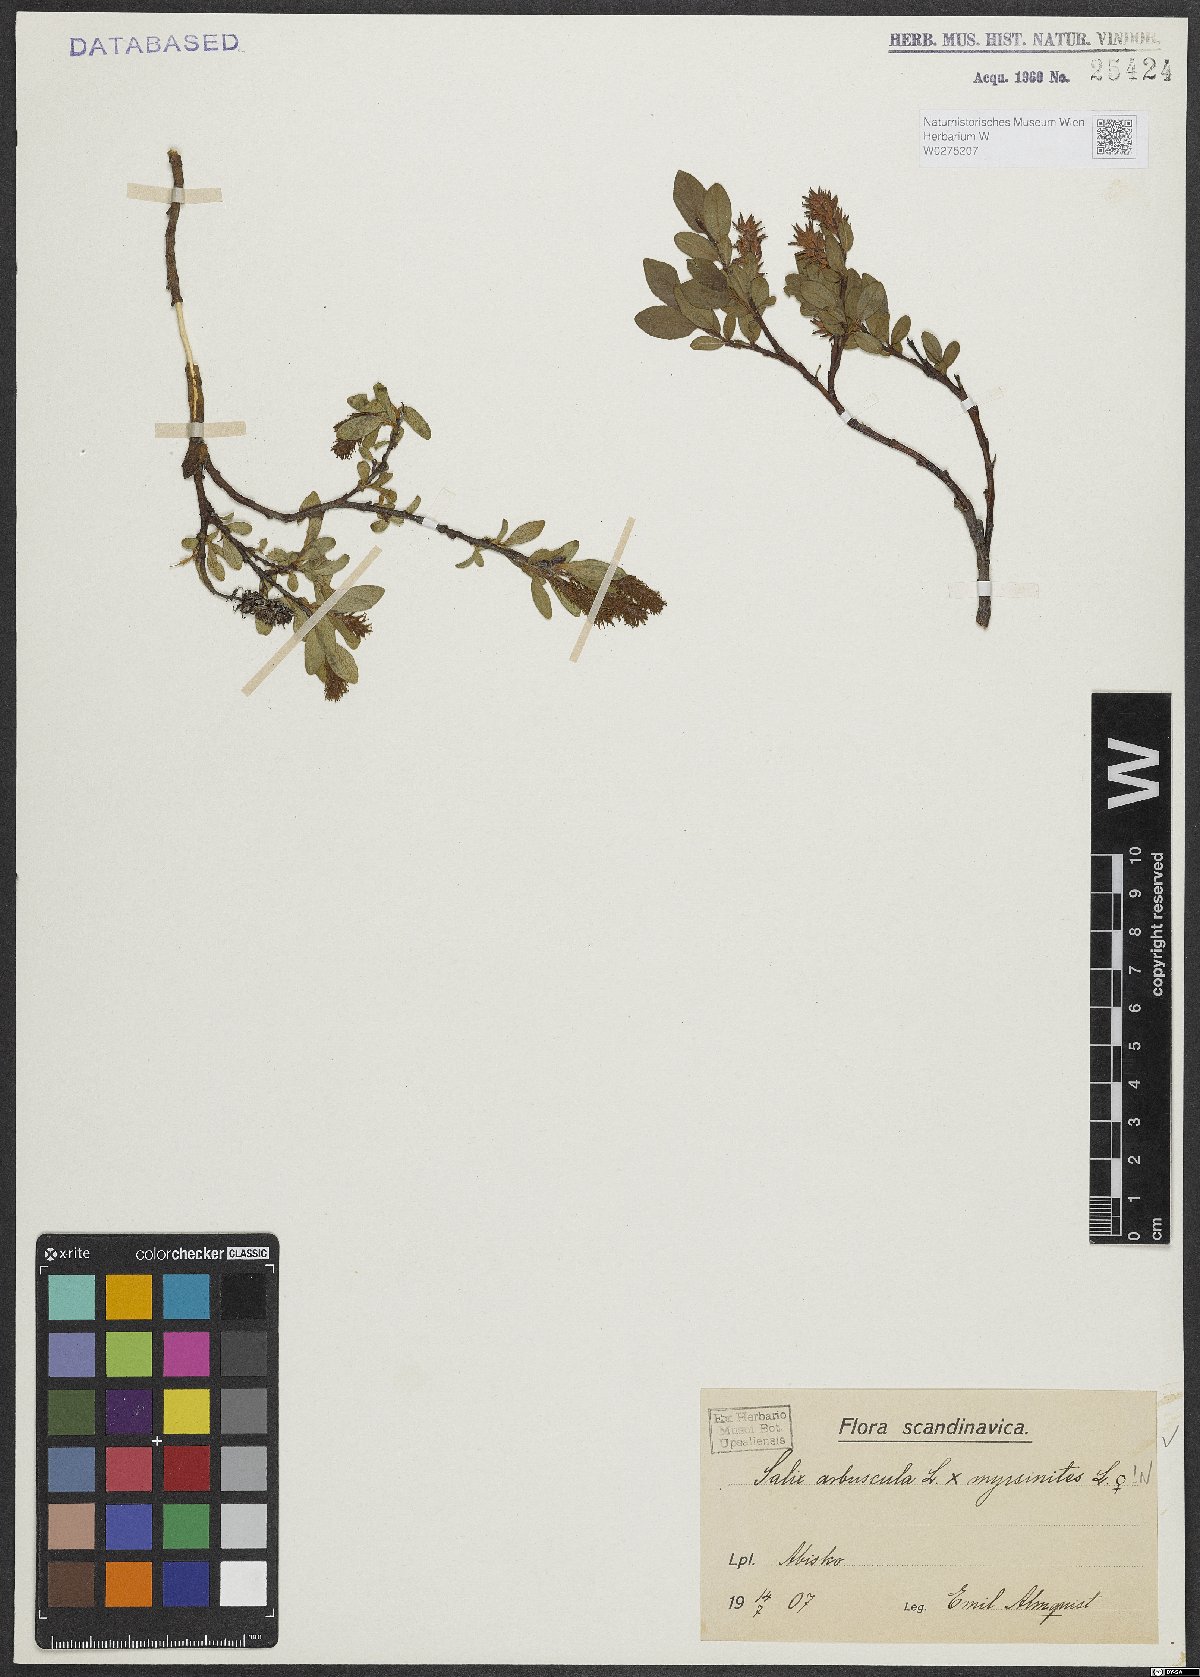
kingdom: Plantae
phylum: Tracheophyta
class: Magnoliopsida
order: Malpighiales
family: Salicaceae
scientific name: Salicaceae
